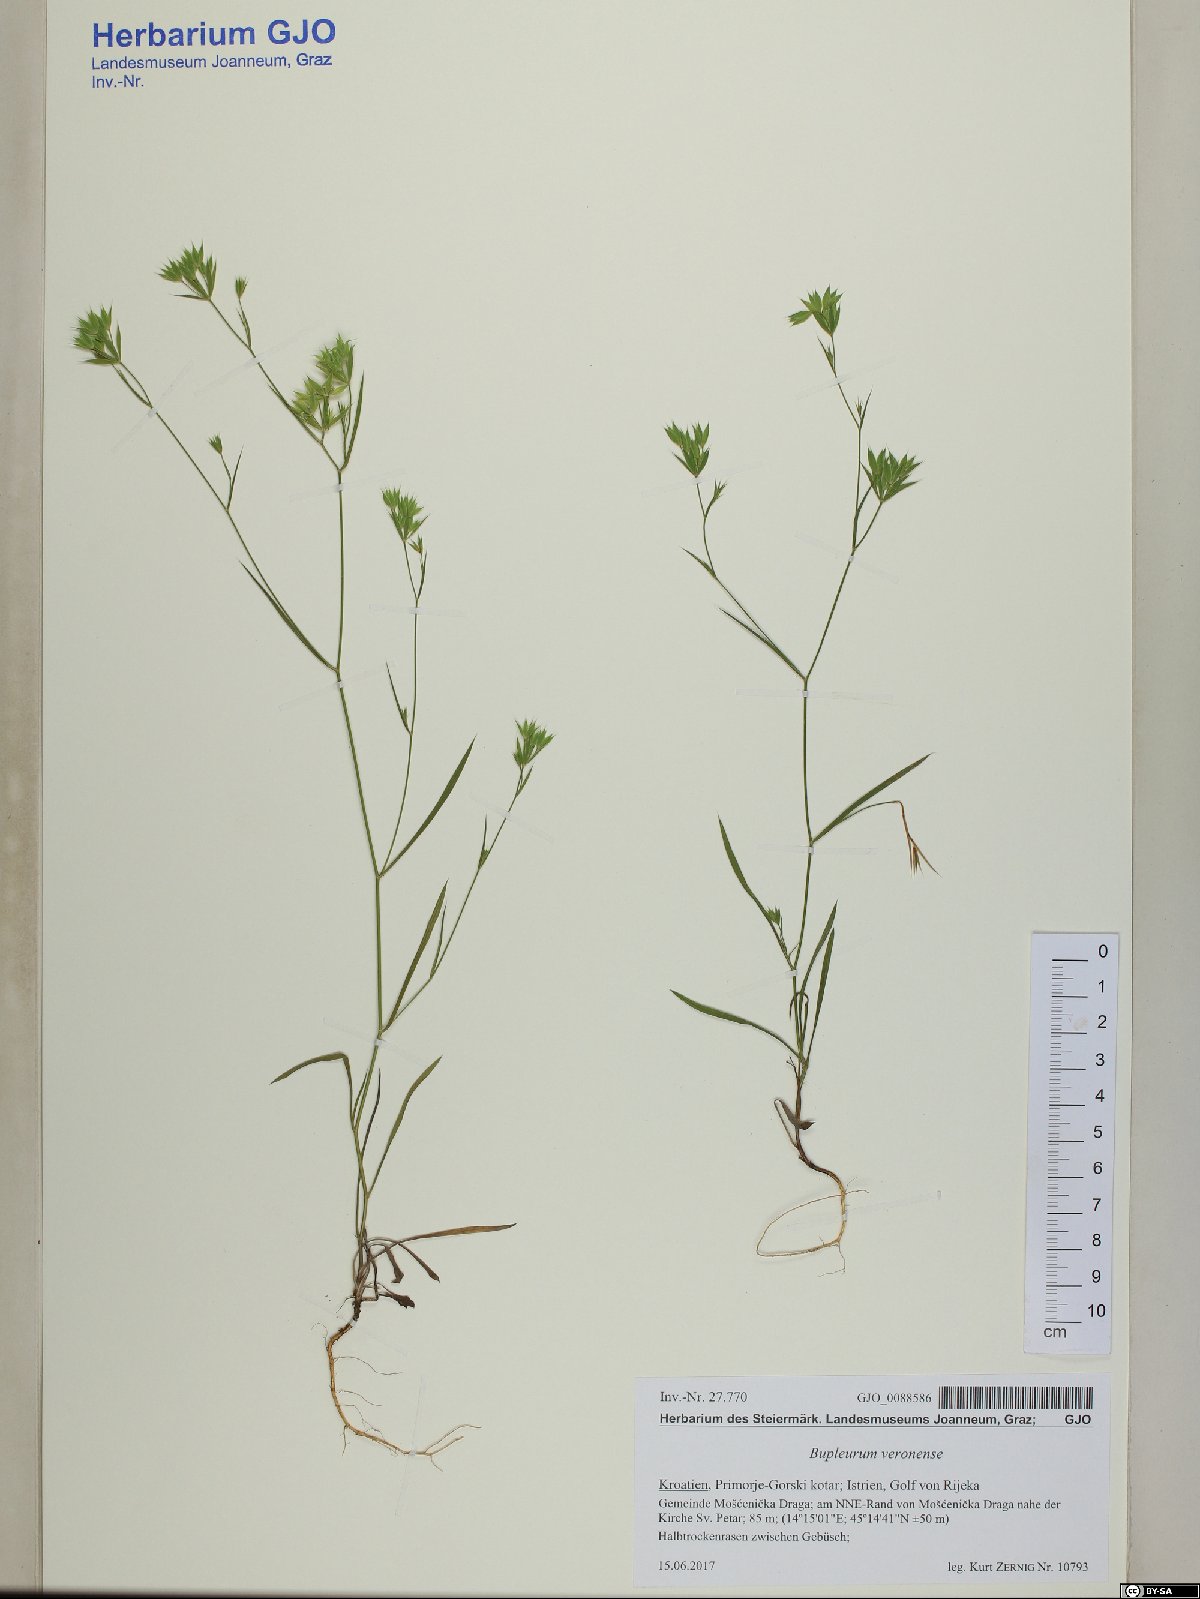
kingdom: Plantae
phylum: Tracheophyta
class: Magnoliopsida
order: Apiales
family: Apiaceae
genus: Bupleurum
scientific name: Bupleurum veronense
